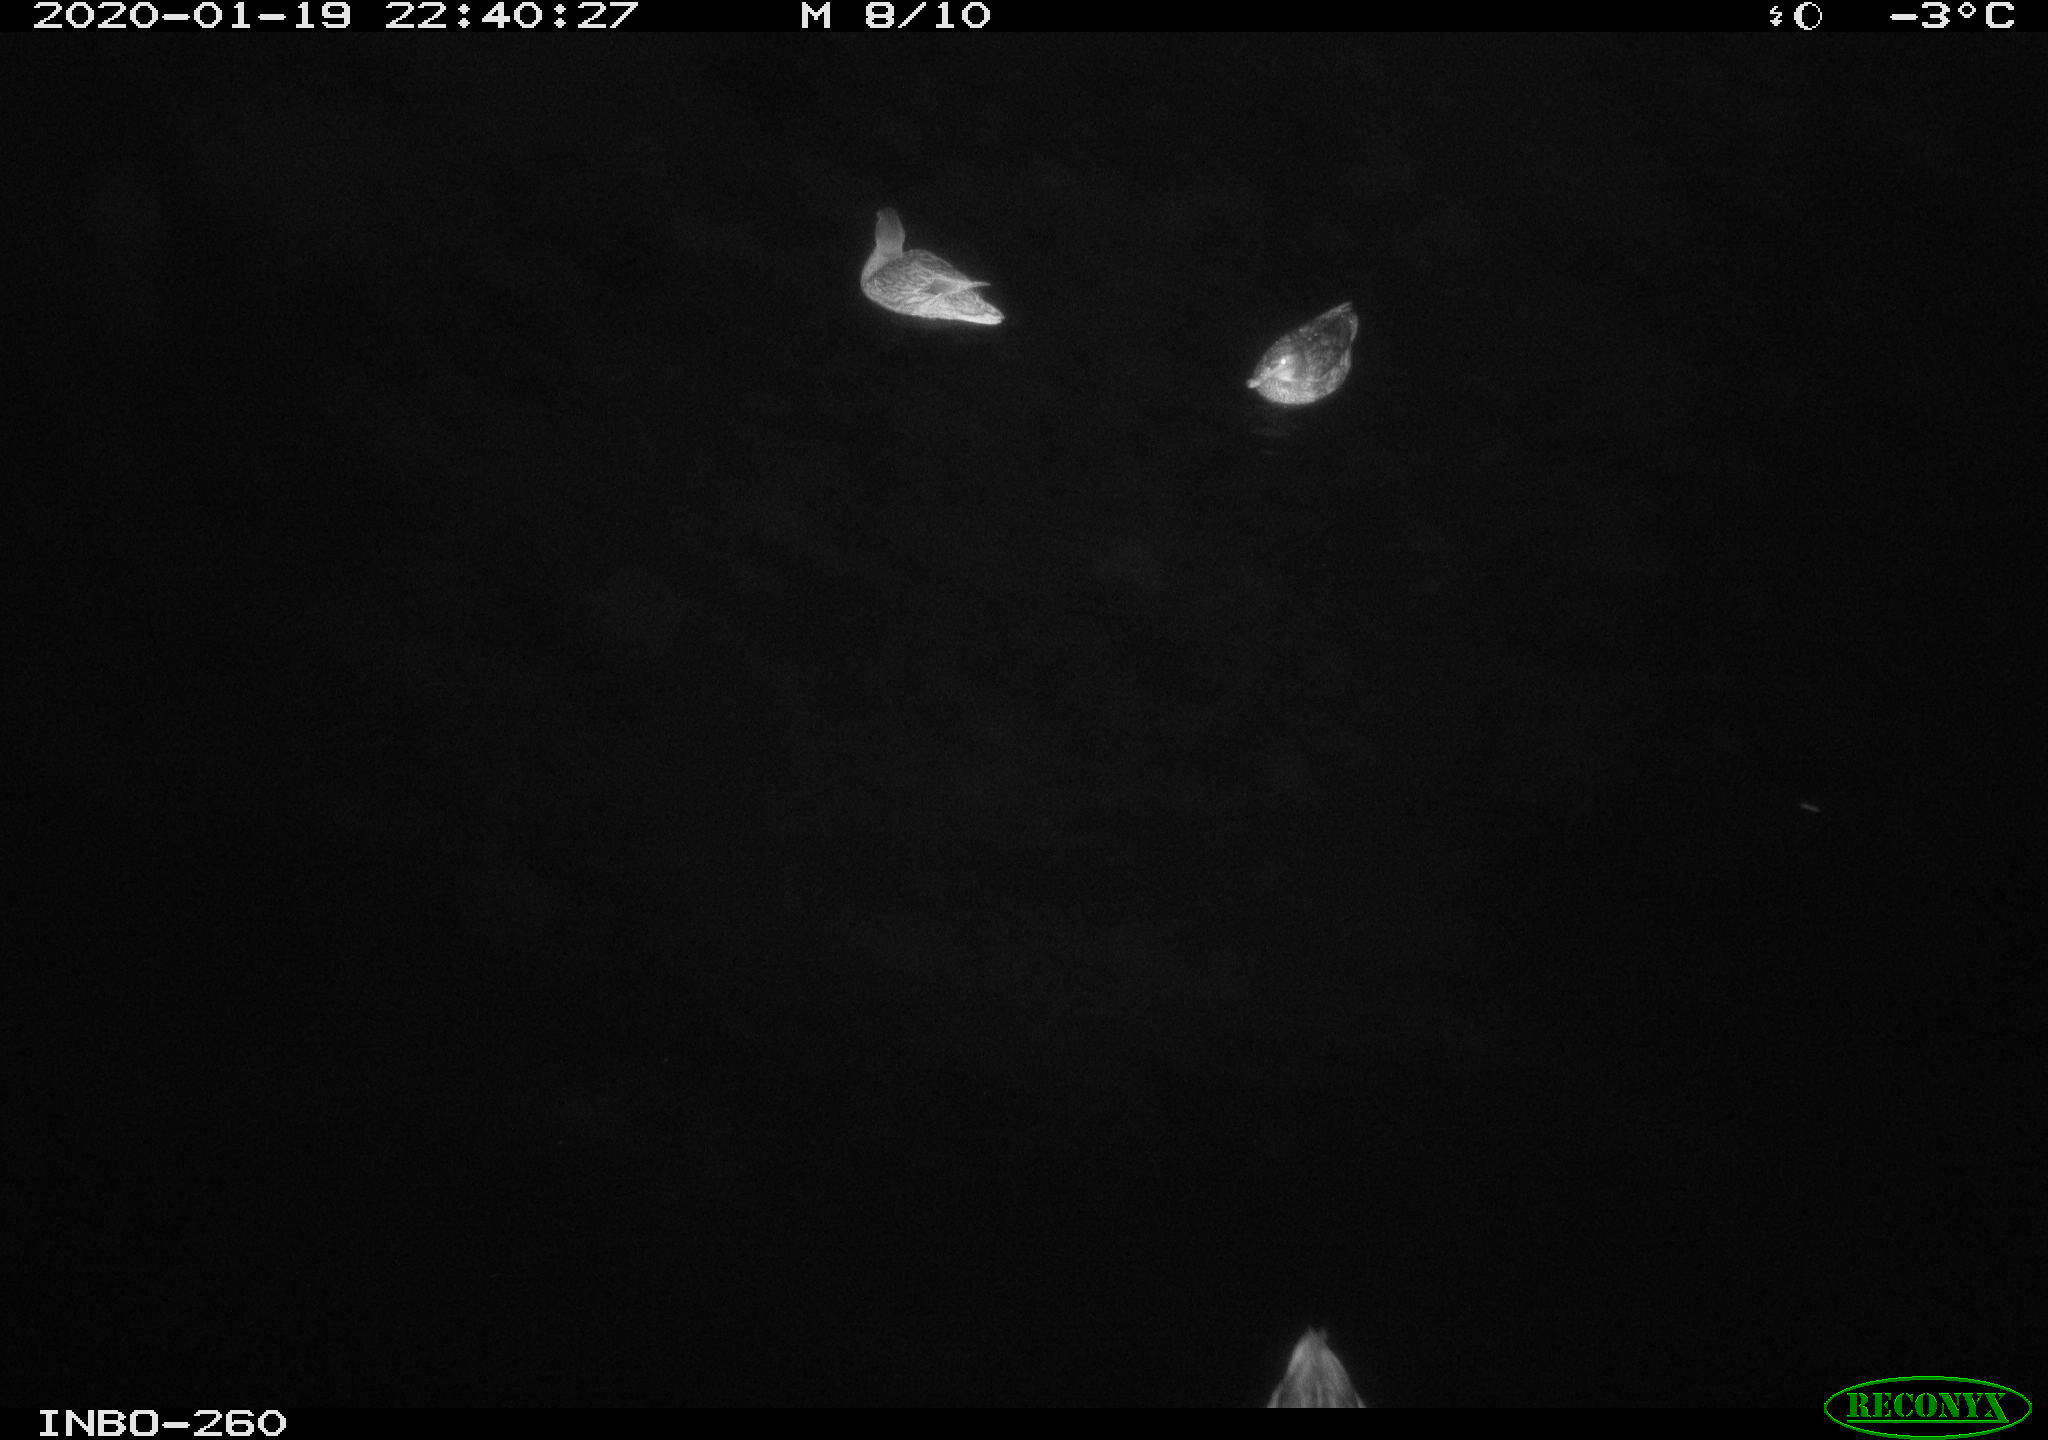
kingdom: Animalia
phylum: Chordata
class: Aves
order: Anseriformes
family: Anatidae
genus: Anas
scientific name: Anas platyrhynchos
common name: Mallard
